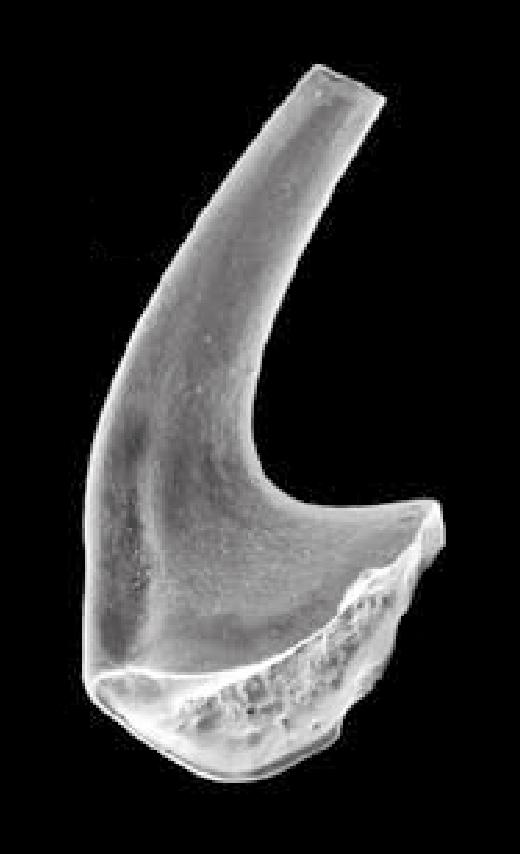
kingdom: Animalia
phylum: Chordata
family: Protopanderodontidae
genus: Variabiloconus
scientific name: Variabiloconus transiapeticus
